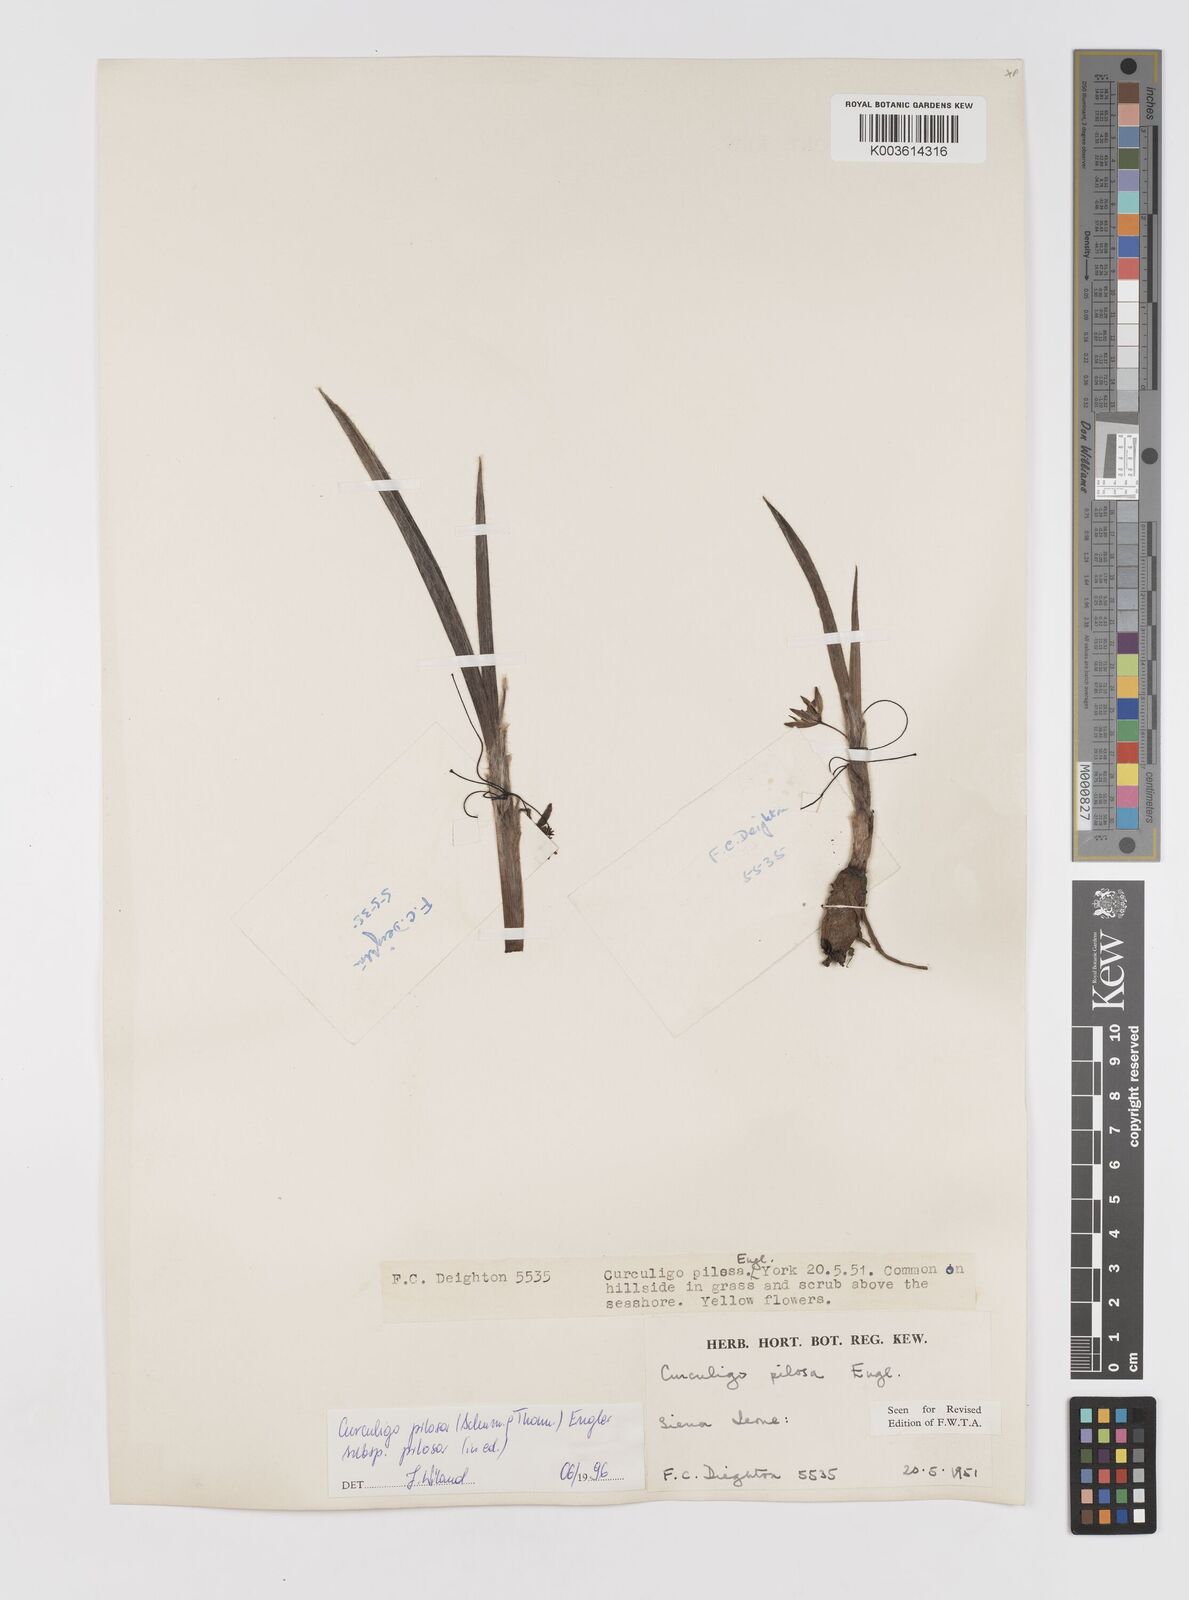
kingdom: Plantae
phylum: Tracheophyta
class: Liliopsida
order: Asparagales
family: Hypoxidaceae
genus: Curculigo
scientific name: Curculigo pilosa
